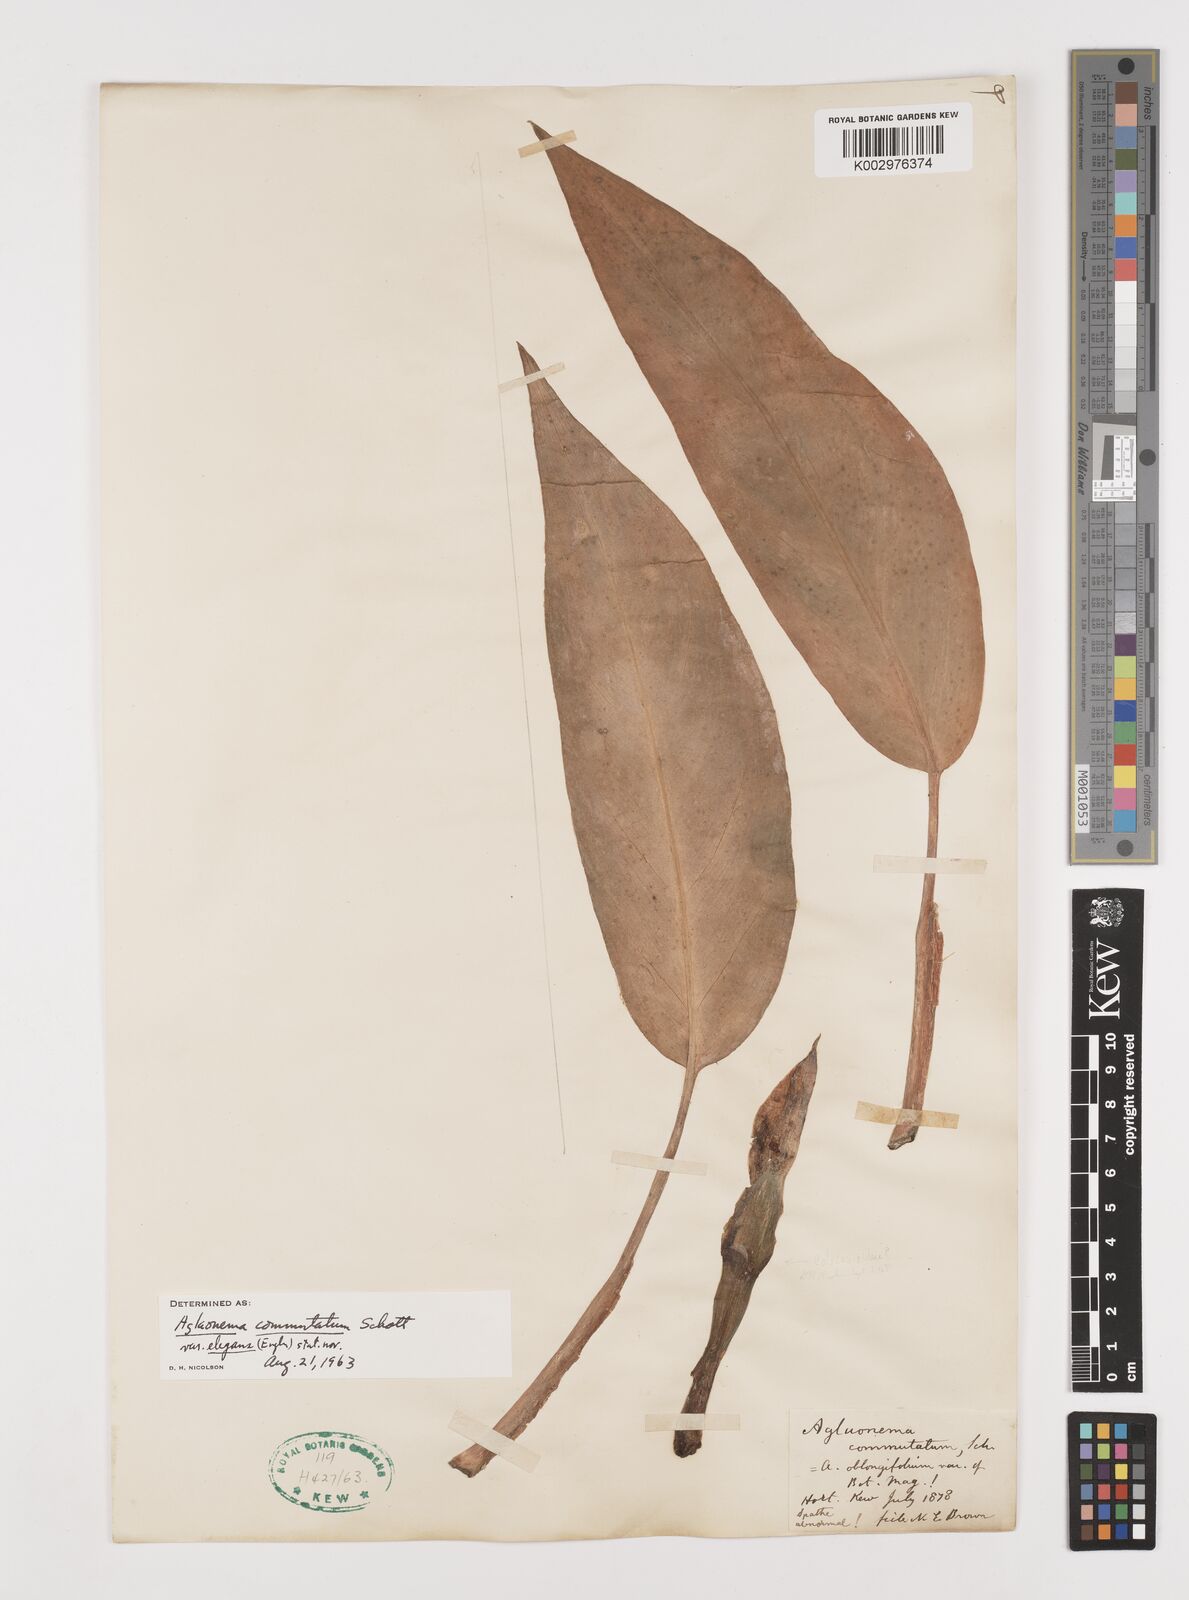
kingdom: Plantae
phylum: Tracheophyta
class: Liliopsida
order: Alismatales
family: Araceae
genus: Aglaonema
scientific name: Aglaonema commutatum
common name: Philippine evergreen
